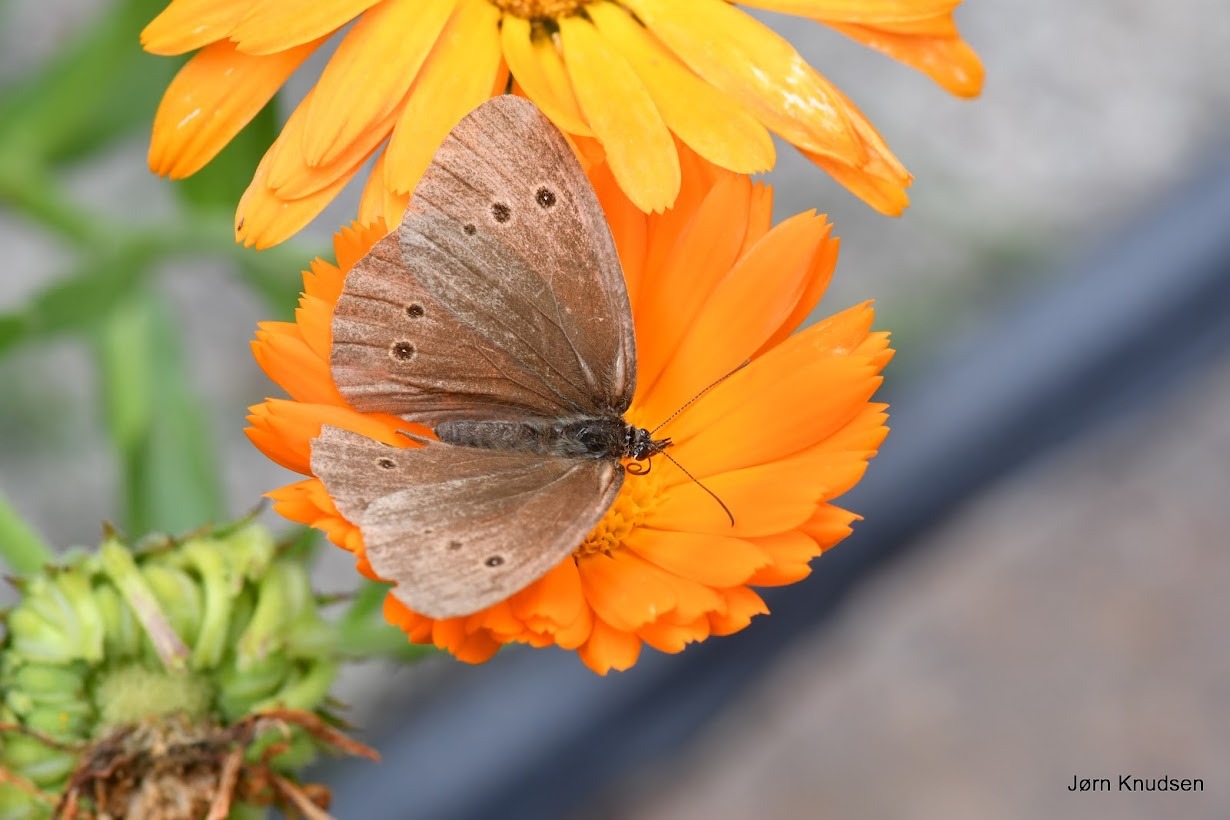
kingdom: Animalia
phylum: Arthropoda
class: Insecta
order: Lepidoptera
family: Nymphalidae
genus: Aphantopus
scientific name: Aphantopus hyperantus
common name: Engrandøje
